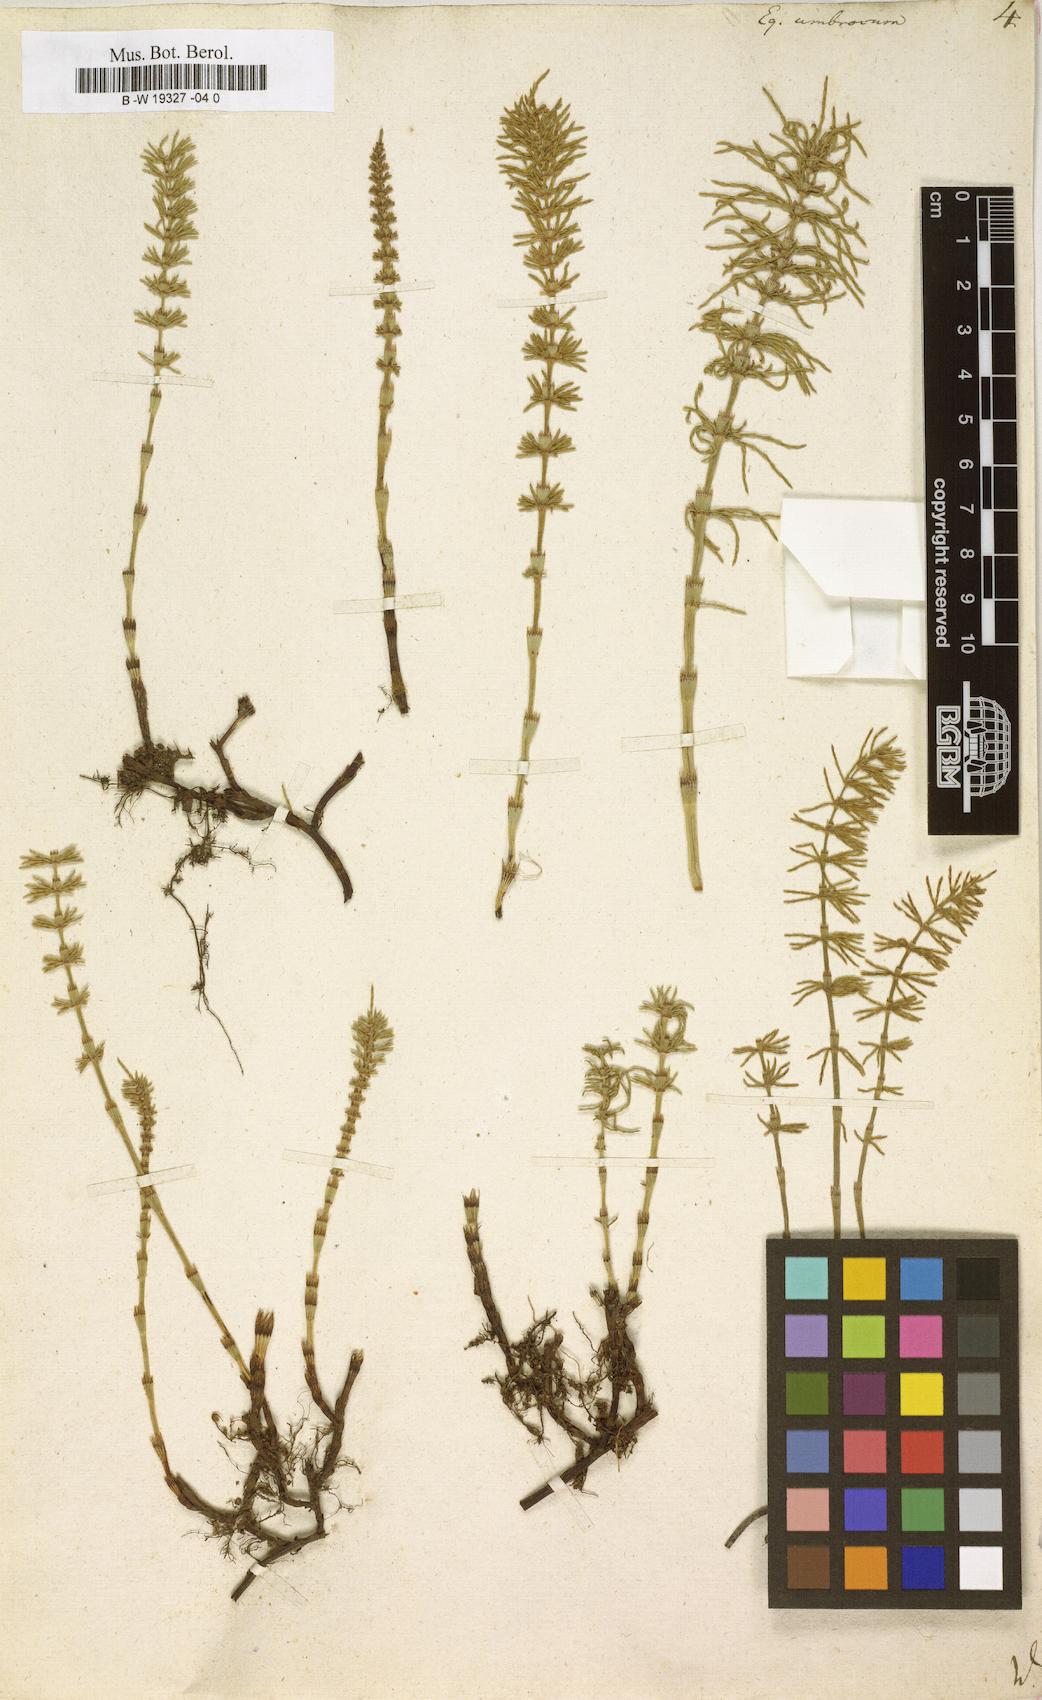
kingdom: Plantae
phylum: Tracheophyta
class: Polypodiopsida
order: Equisetales
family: Equisetaceae
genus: Equisetum
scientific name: Equisetum pratense
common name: Meadow horsetail
